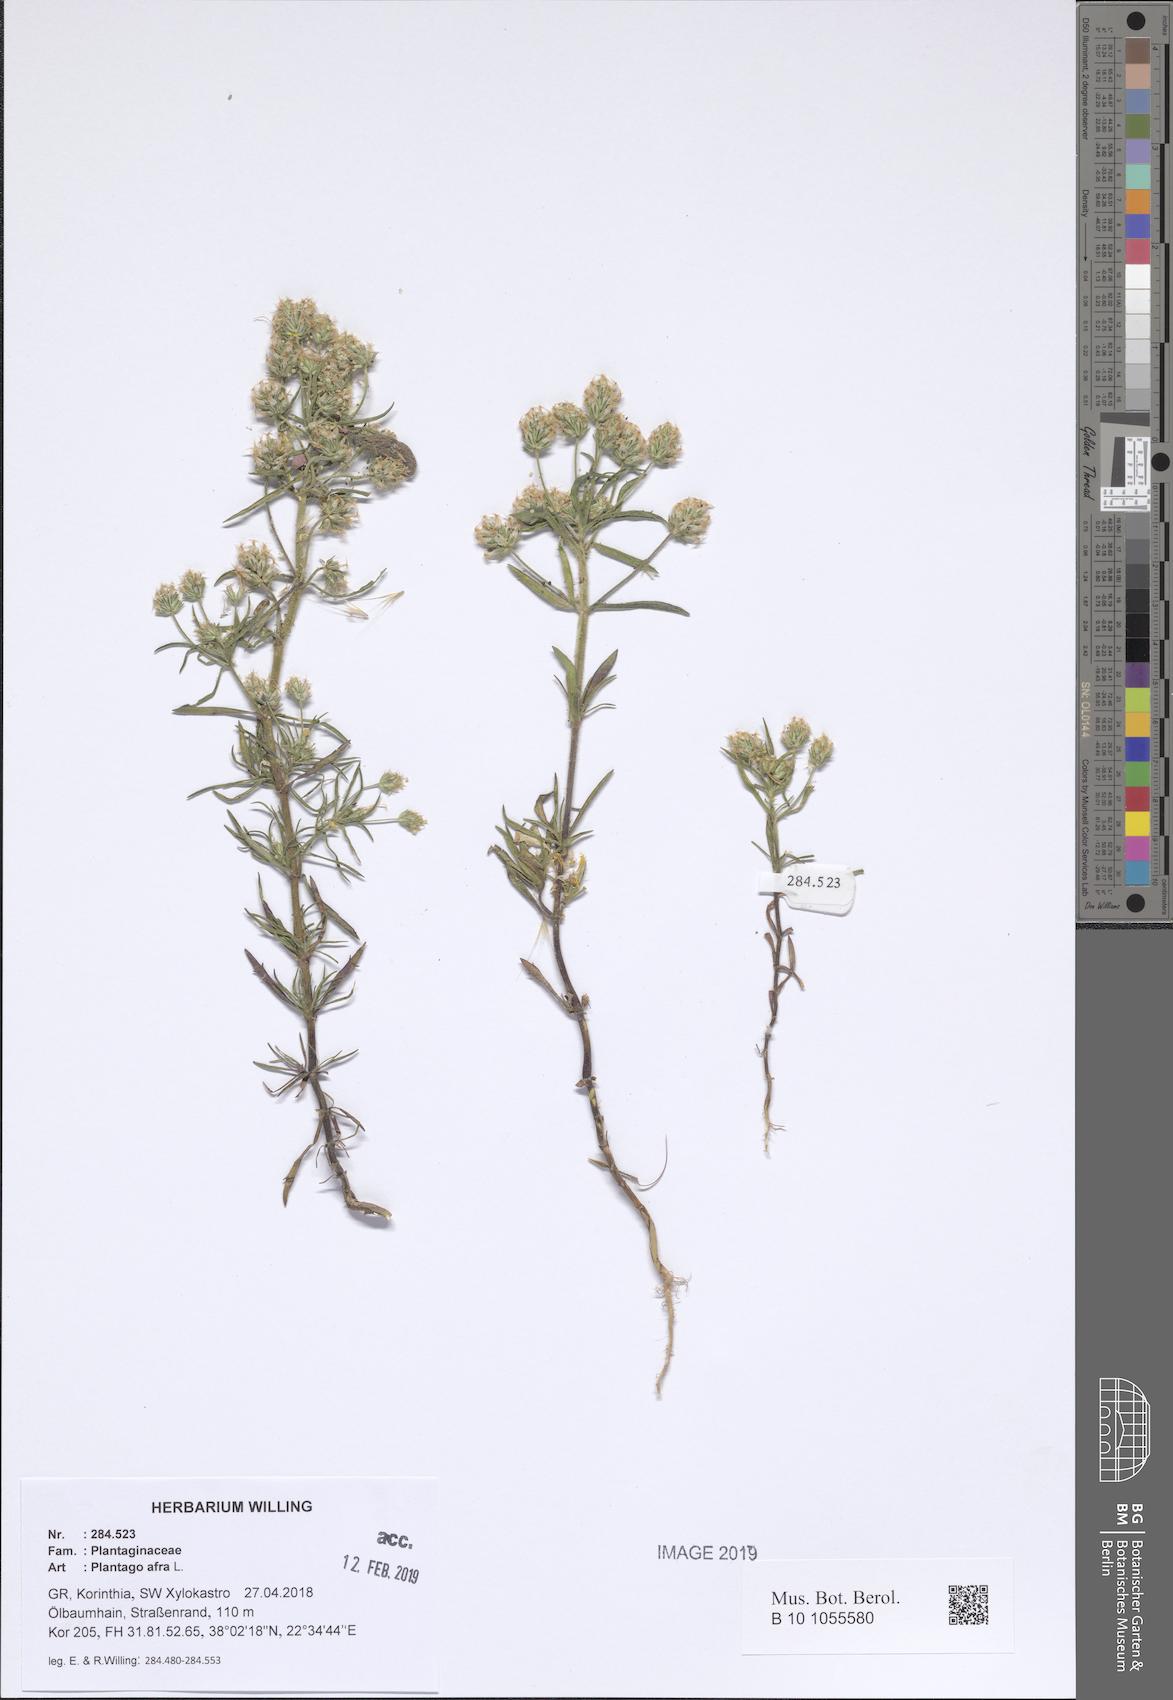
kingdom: Plantae
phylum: Tracheophyta
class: Magnoliopsida
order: Lamiales
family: Plantaginaceae
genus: Plantago
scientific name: Plantago afra
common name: Glandular plantain
